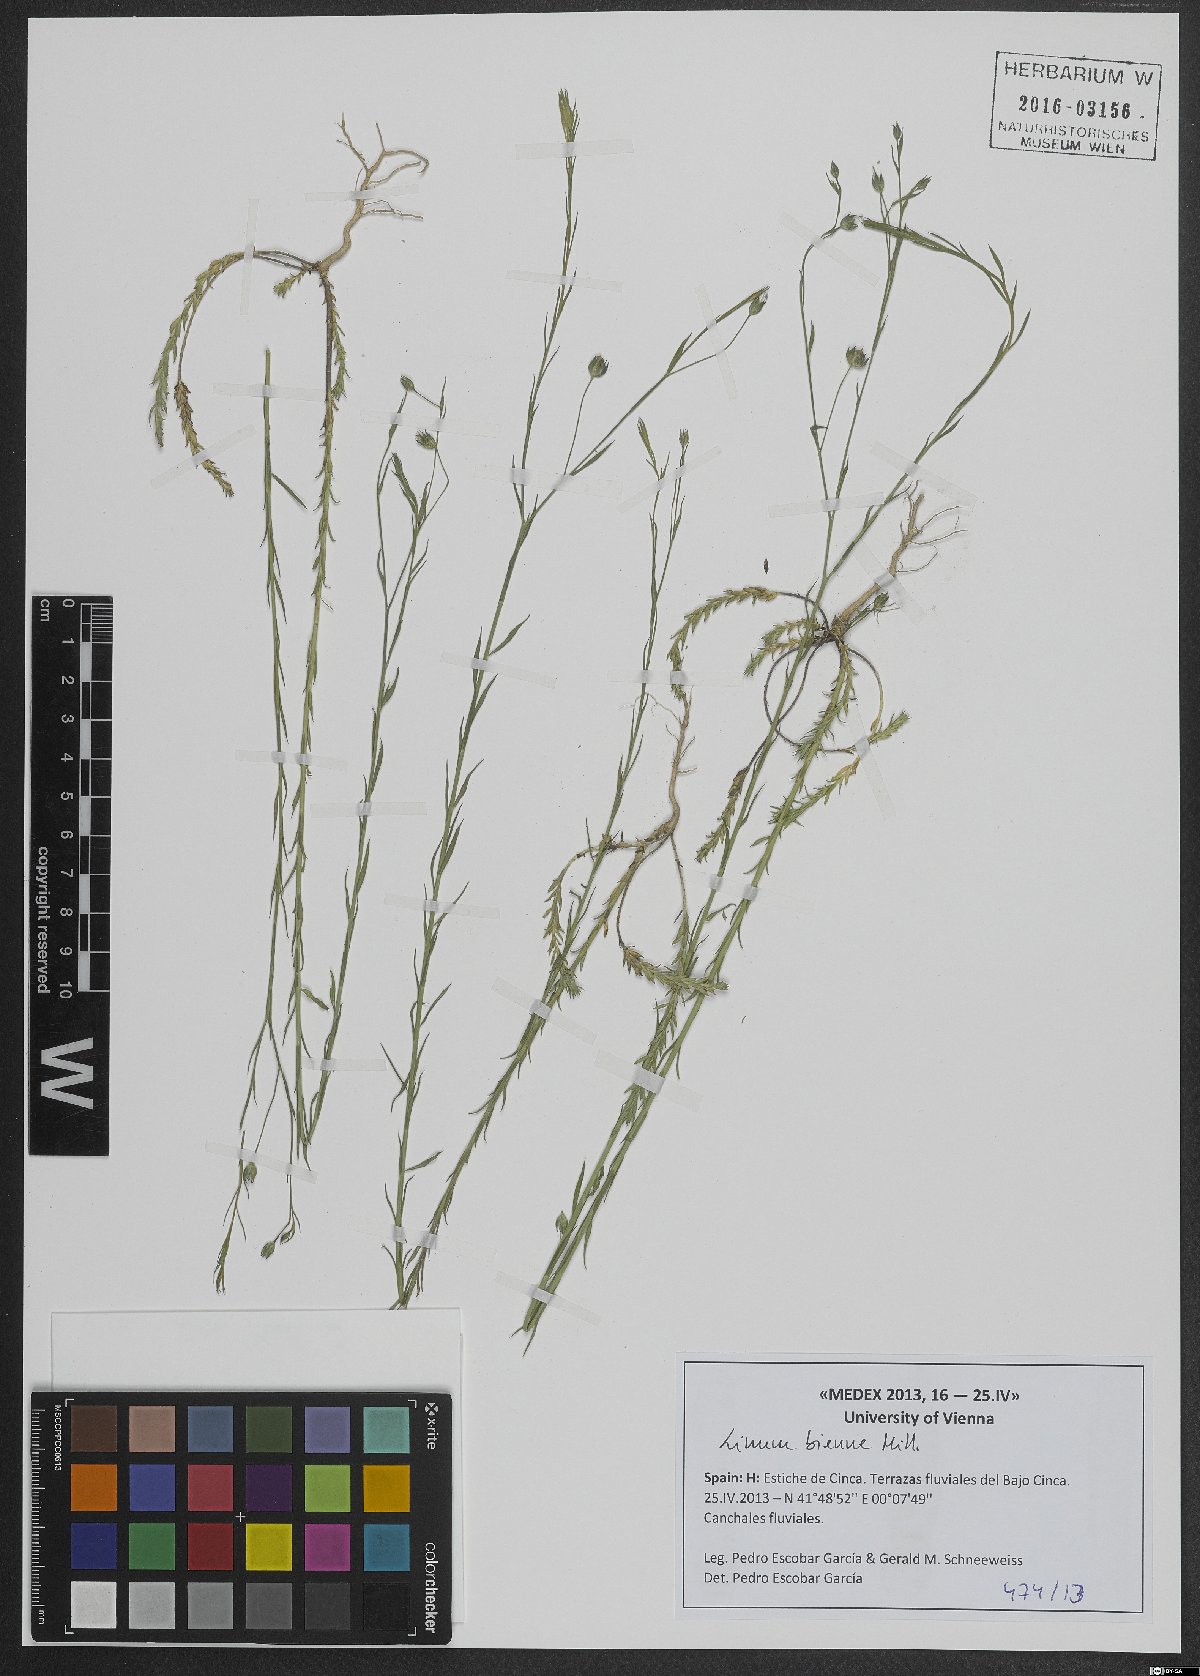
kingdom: Plantae
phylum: Tracheophyta
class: Magnoliopsida
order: Malpighiales
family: Linaceae
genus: Linum
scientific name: Linum bienne
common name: Pale flax
